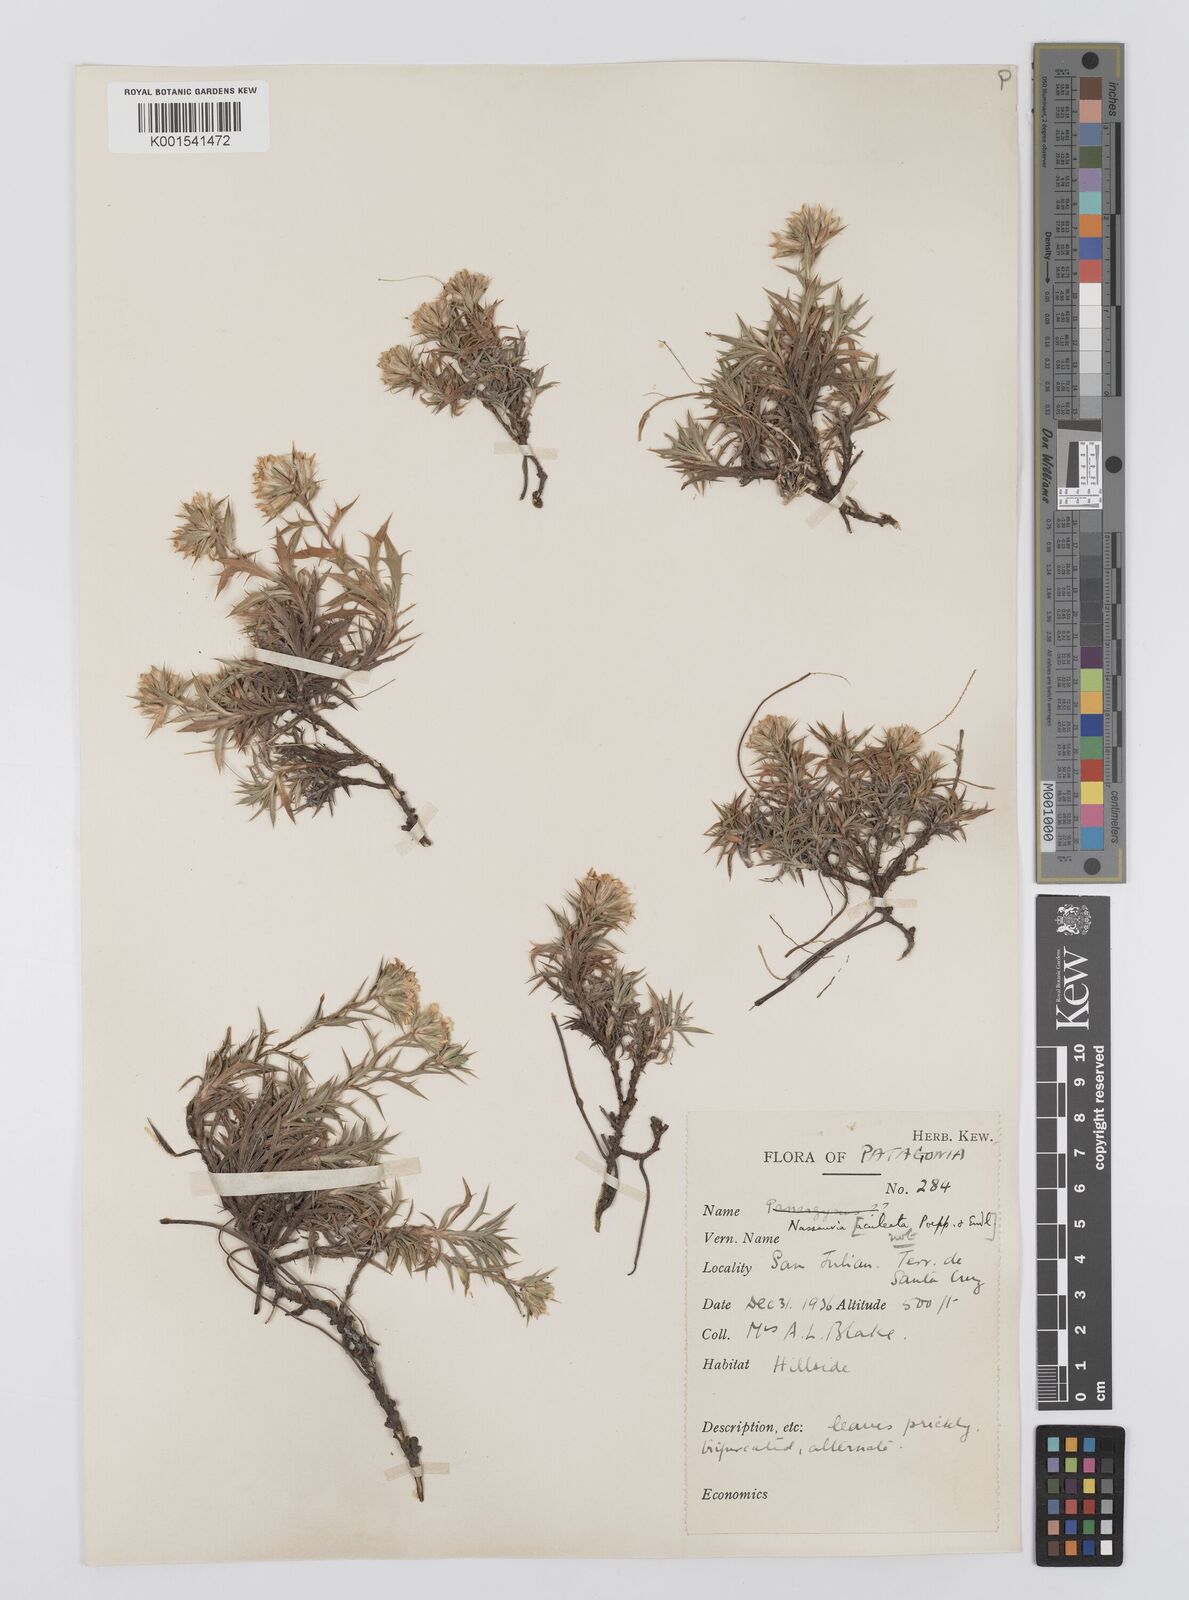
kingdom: Plantae
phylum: Tracheophyta
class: Magnoliopsida
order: Asterales
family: Asteraceae
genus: Nassauvia
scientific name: Nassauvia
